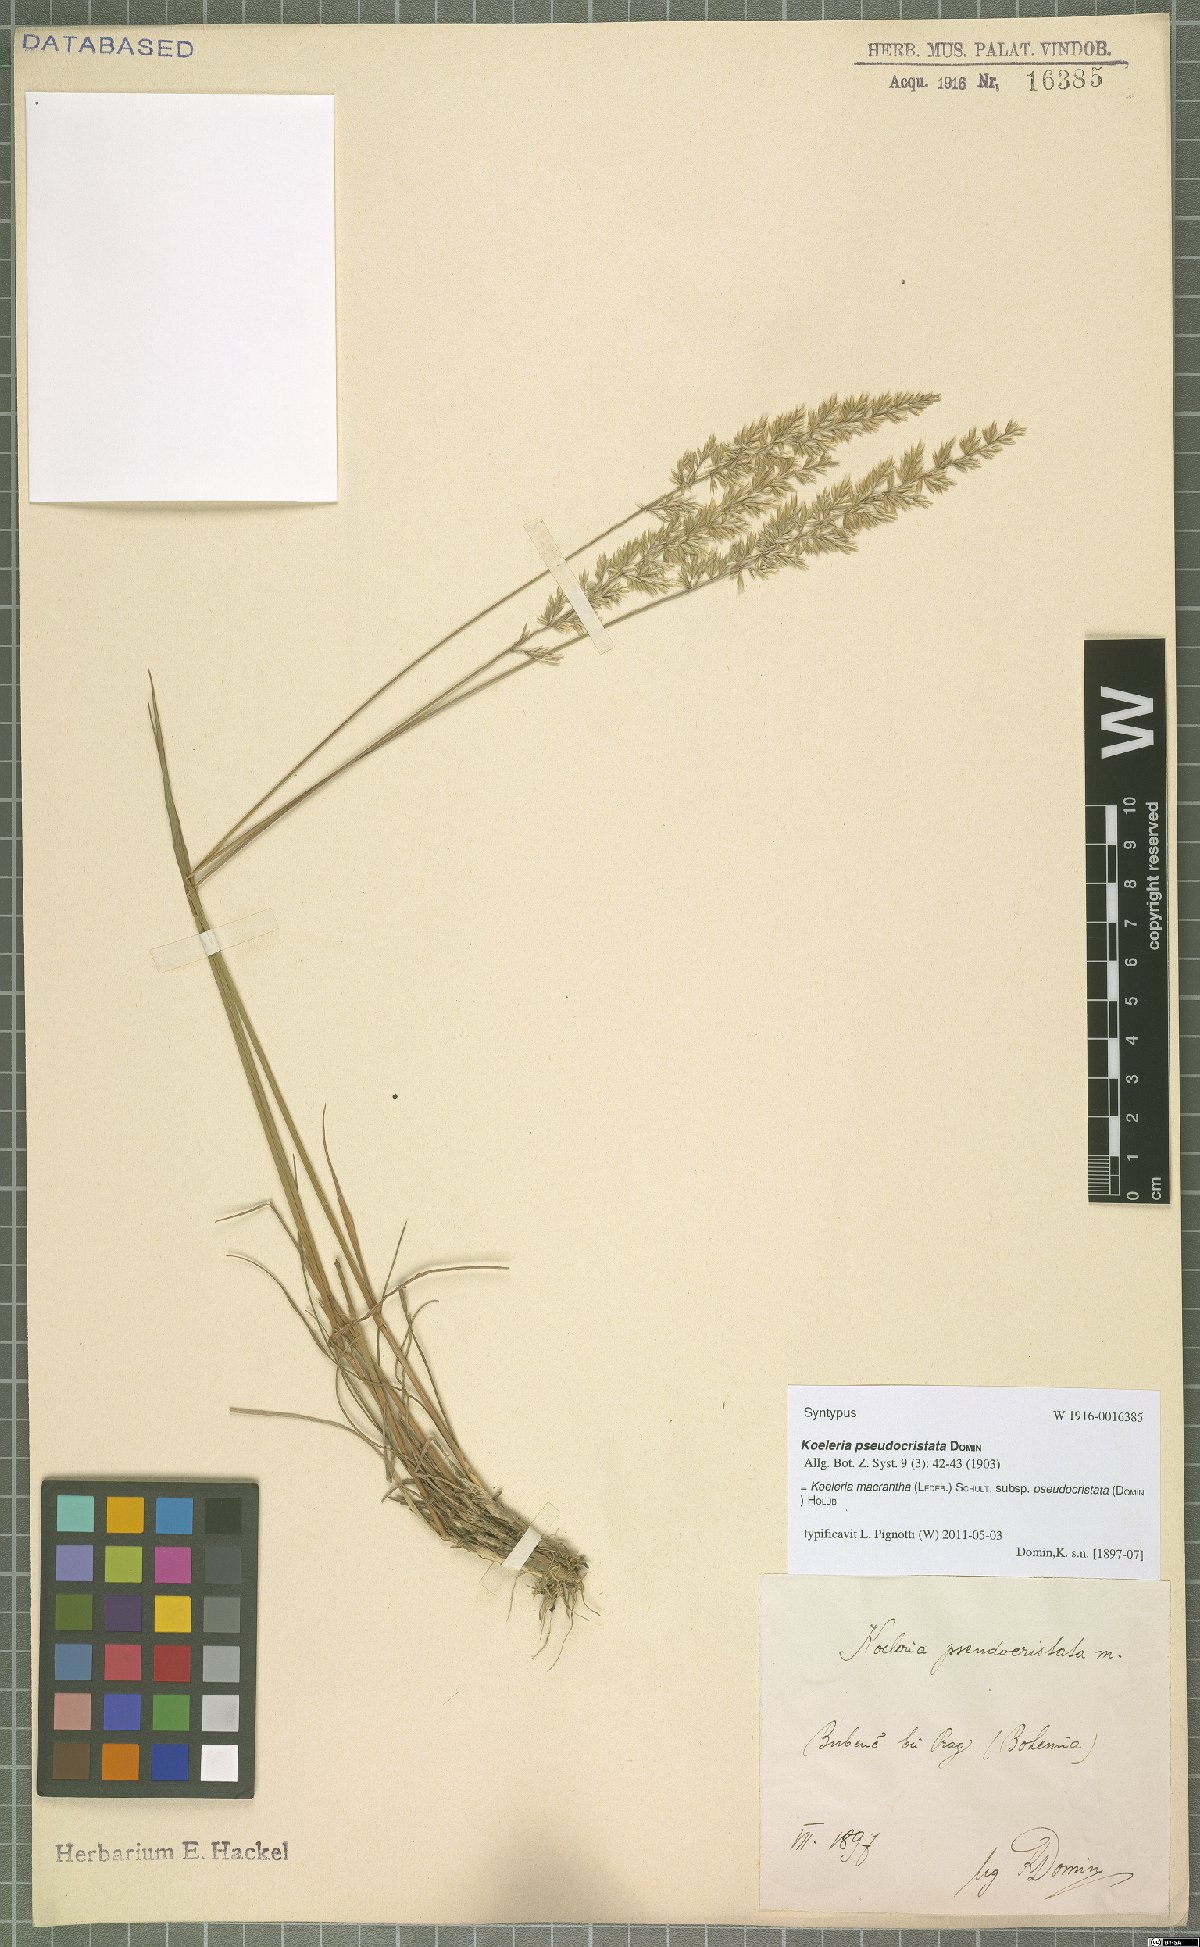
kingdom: Plantae
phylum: Tracheophyta
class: Liliopsida
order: Poales
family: Poaceae
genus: Koeleria
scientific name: Koeleria macrantha
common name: Crested hair-grass
